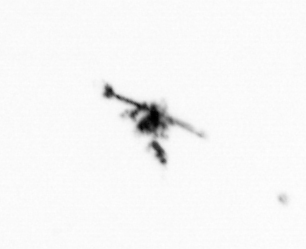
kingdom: Animalia
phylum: Arthropoda
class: Copepoda
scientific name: Copepoda
